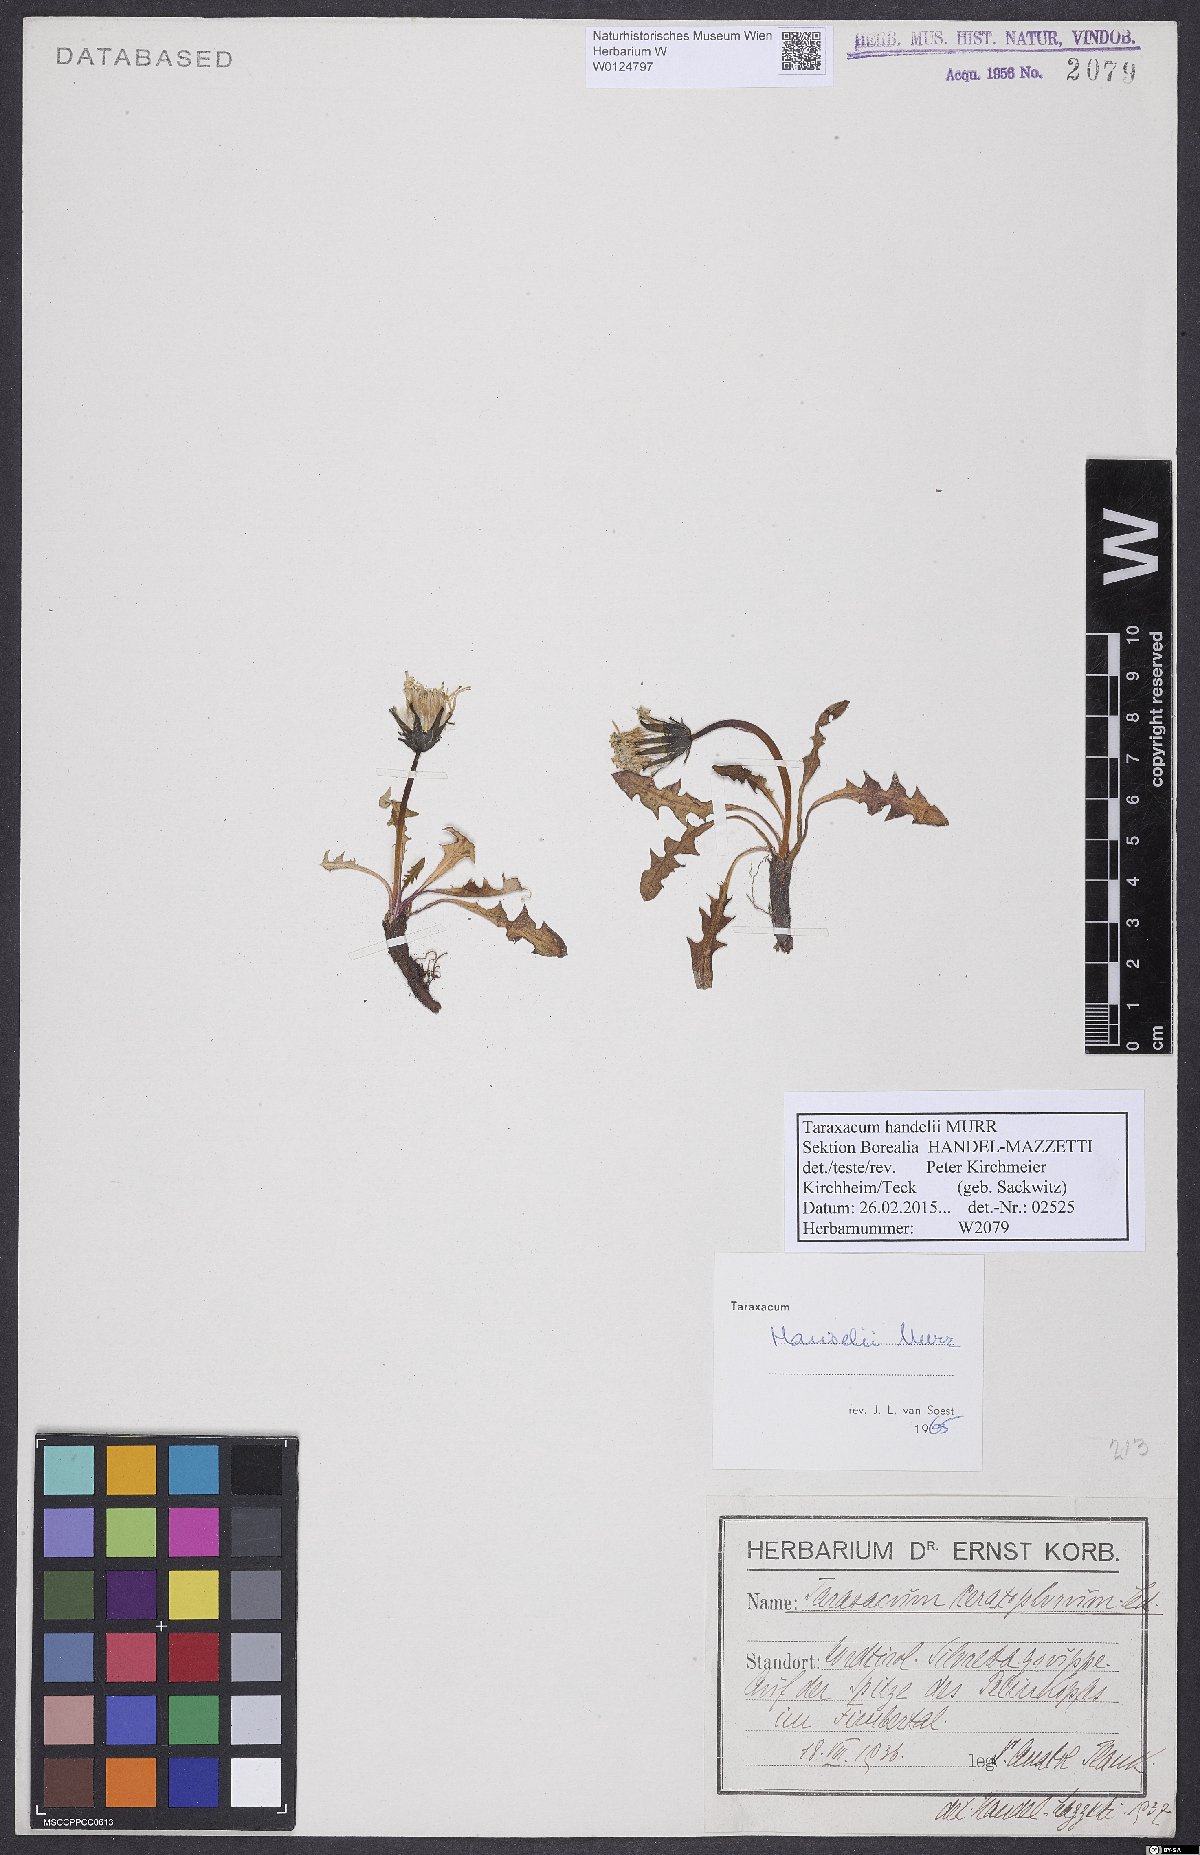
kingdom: Plantae
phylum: Tracheophyta
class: Magnoliopsida
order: Asterales
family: Asteraceae
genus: Taraxacum
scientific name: Taraxacum handelii
